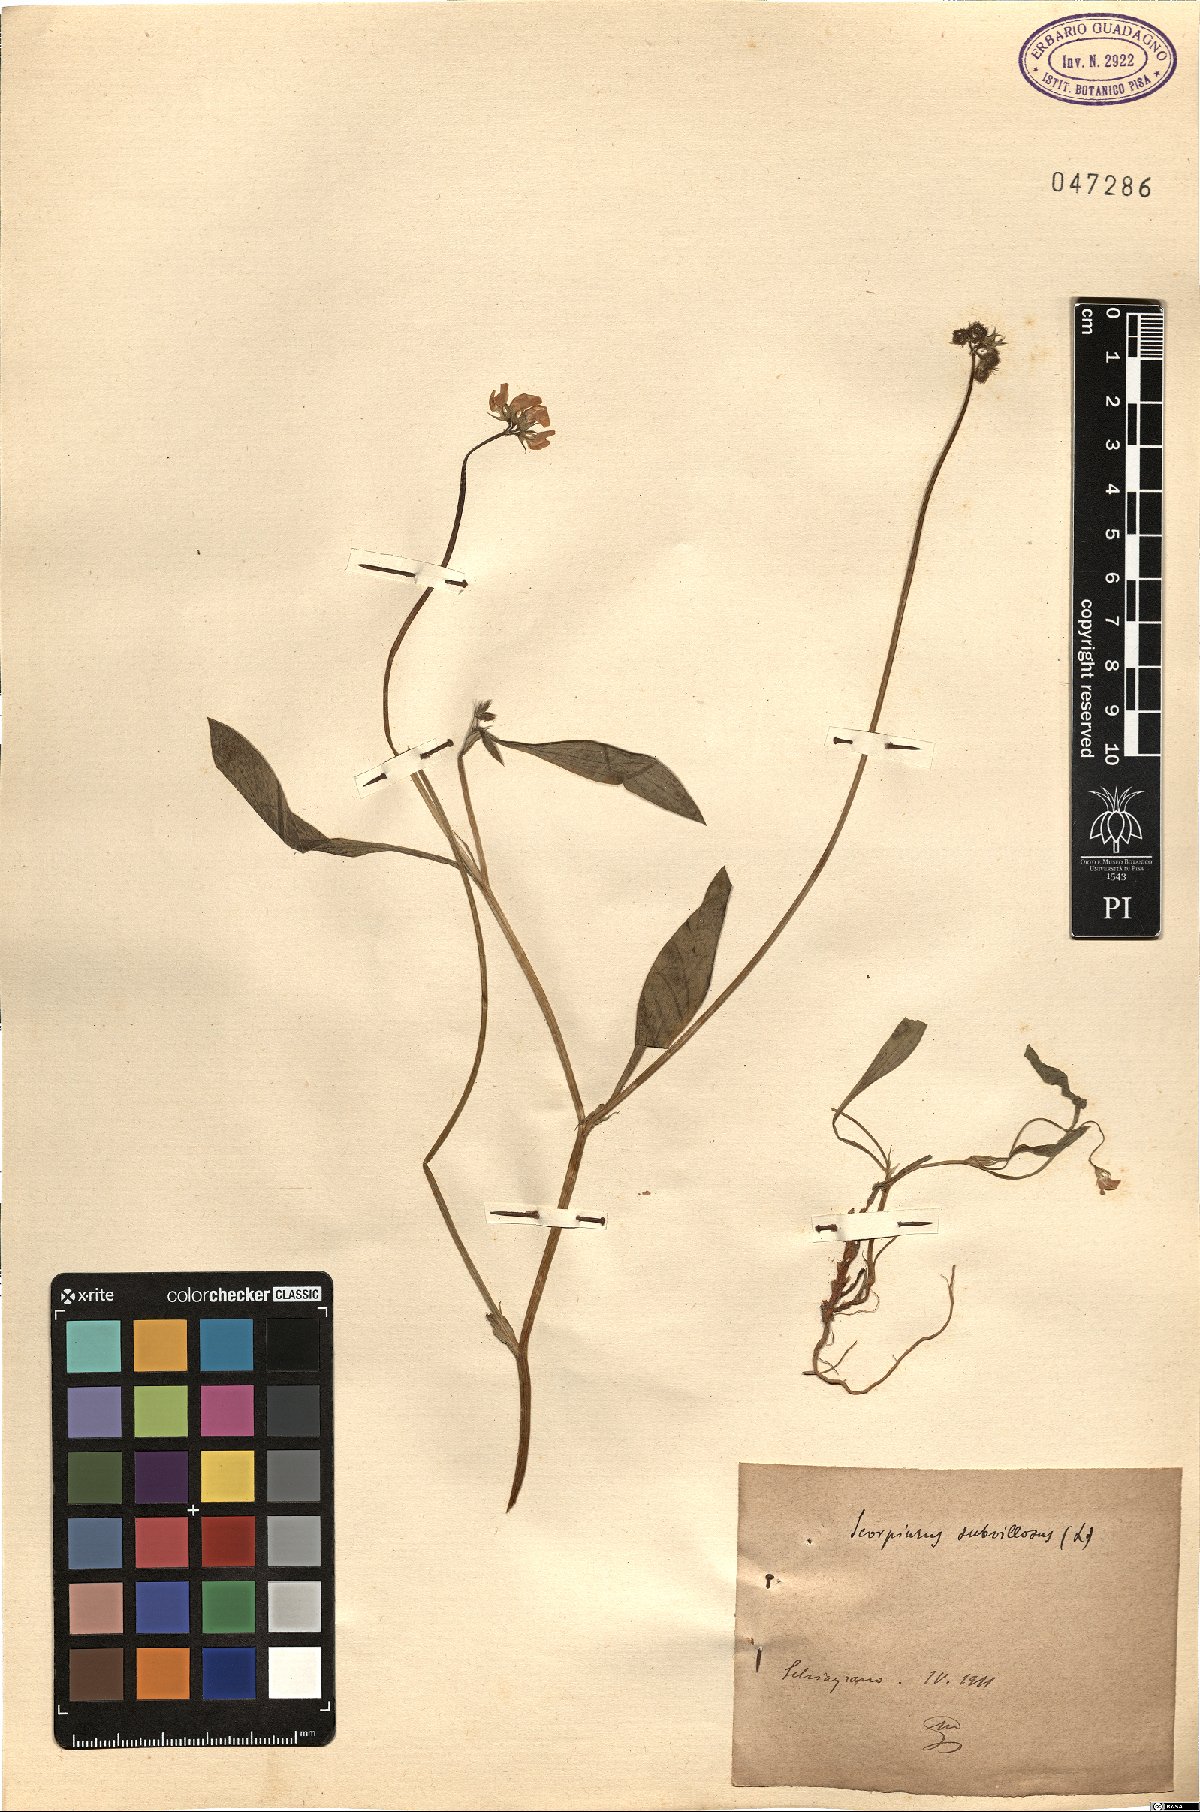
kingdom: Plantae
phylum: Tracheophyta
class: Magnoliopsida
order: Fabales
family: Fabaceae
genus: Scorpiurus
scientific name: Scorpiurus muricatus
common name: Caterpillar-plant
